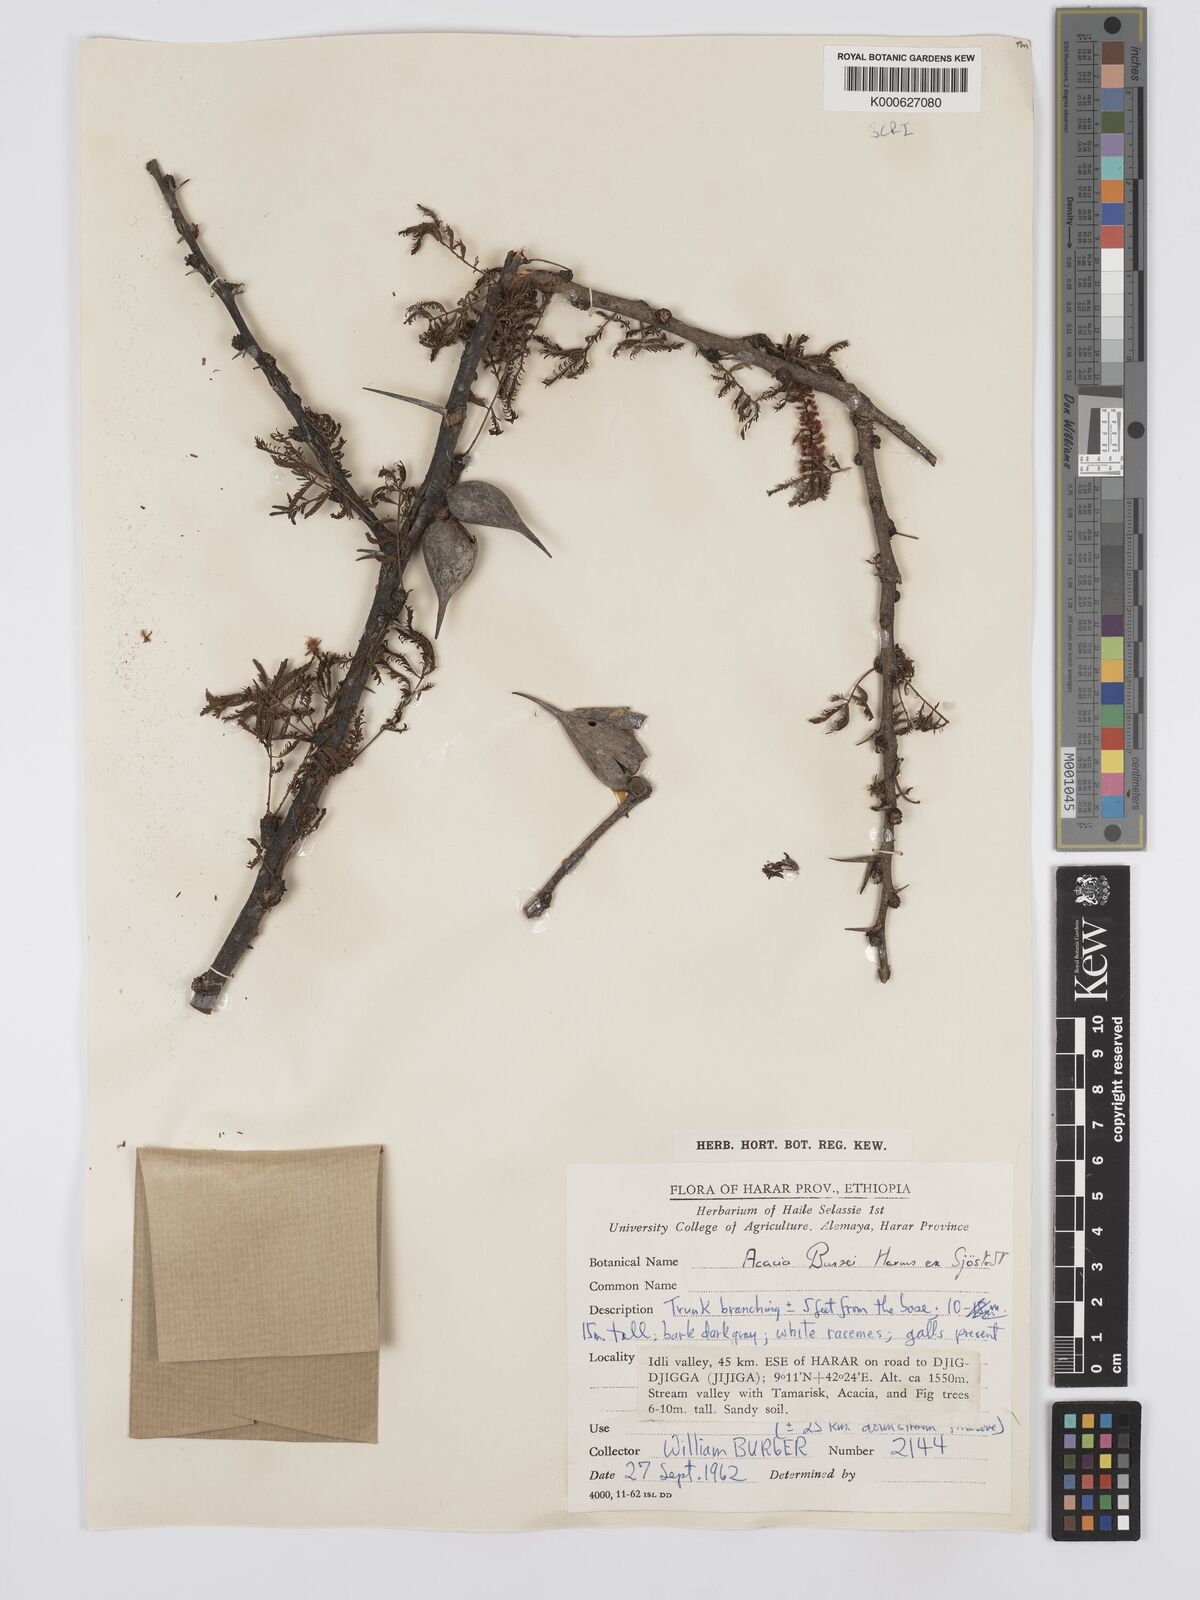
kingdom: Plantae
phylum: Tracheophyta
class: Magnoliopsida
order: Fabales
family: Fabaceae
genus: Vachellia
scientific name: Vachellia bussei
